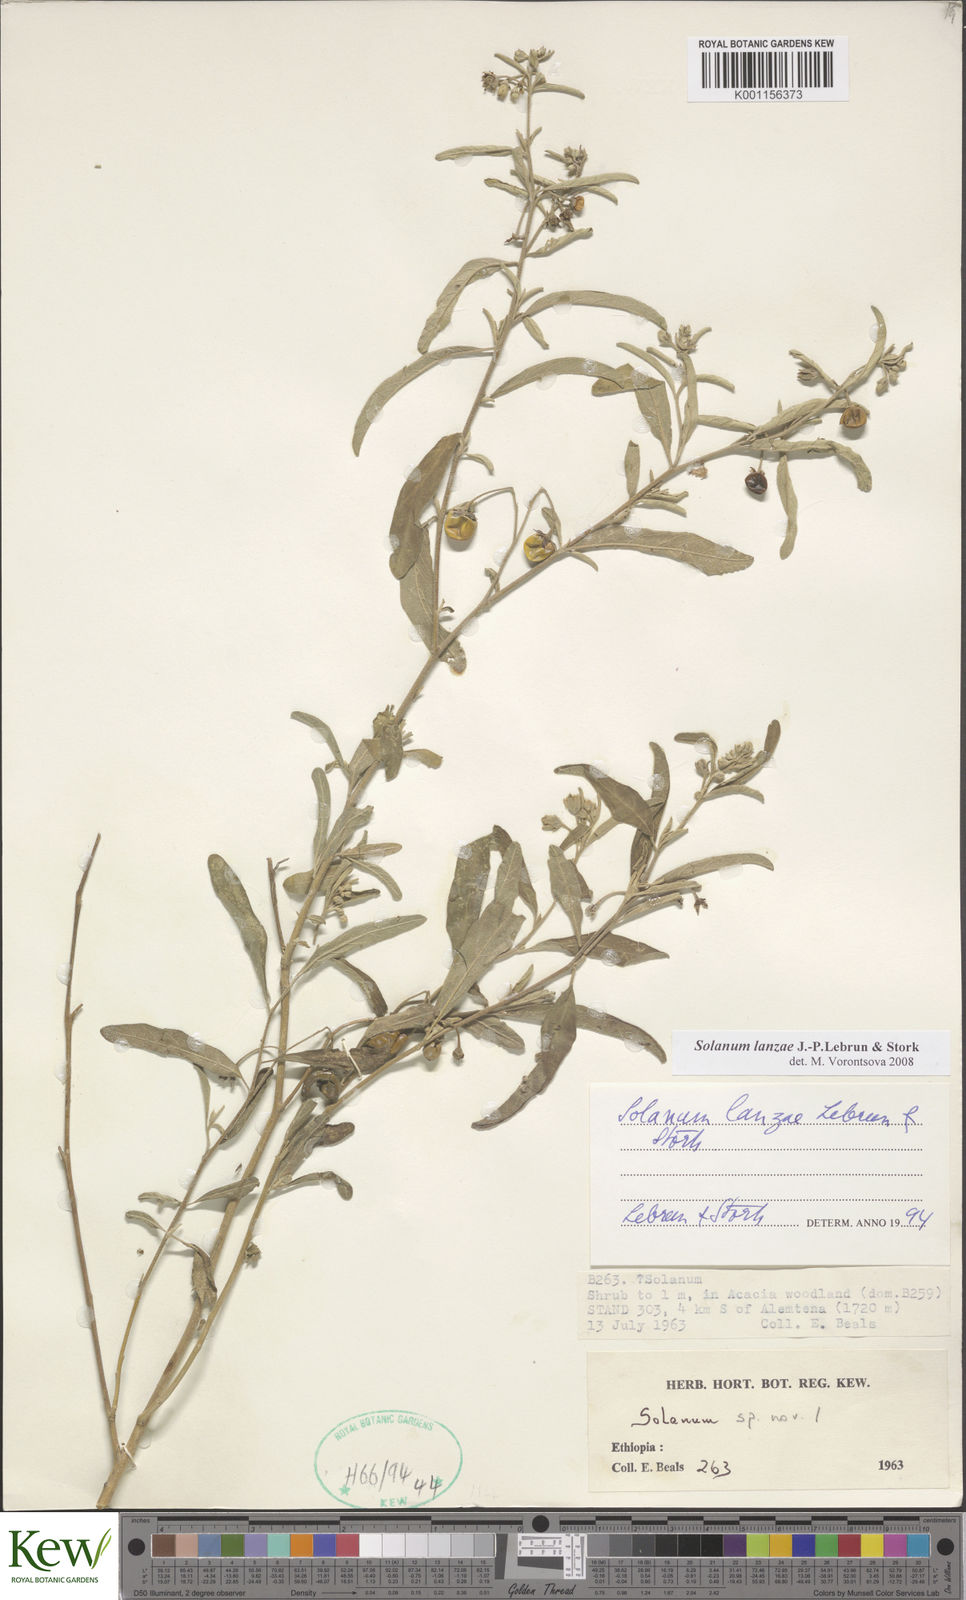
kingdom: Plantae
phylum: Tracheophyta
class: Magnoliopsida
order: Solanales
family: Solanaceae
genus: Solanum
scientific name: Solanum lanzae
